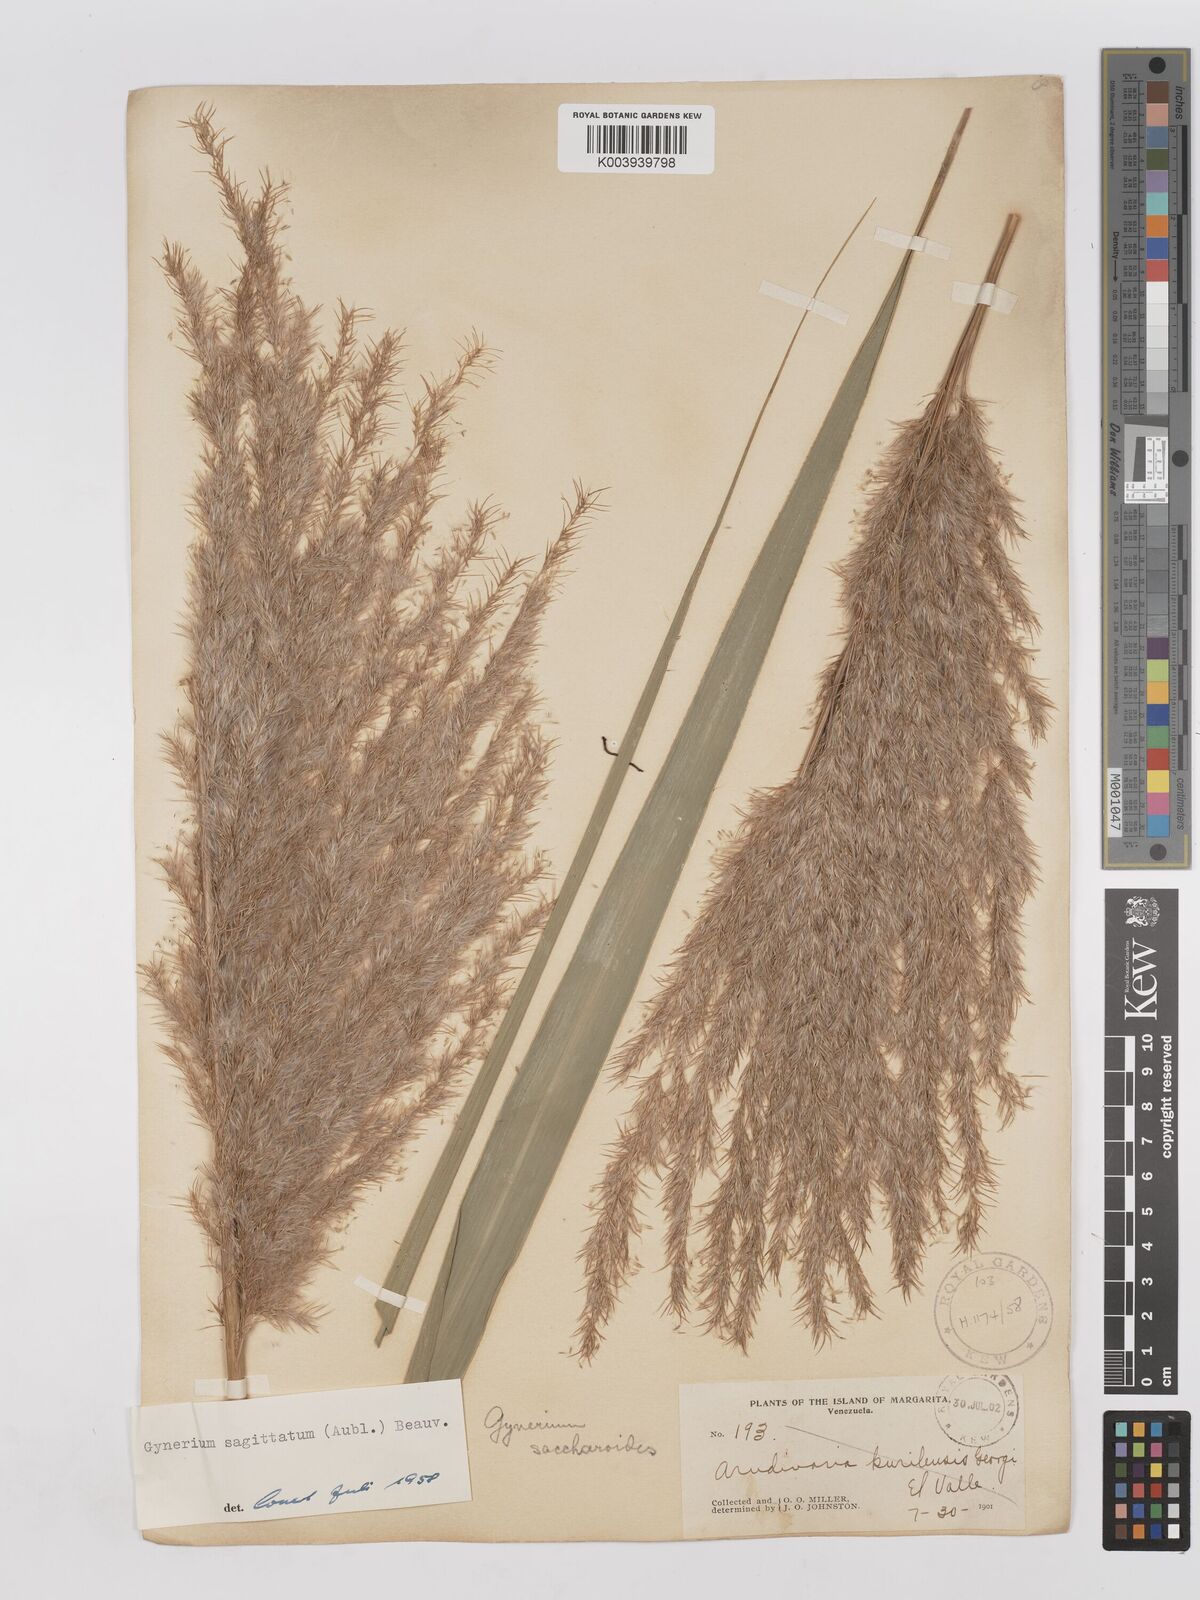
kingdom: Plantae
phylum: Tracheophyta
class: Liliopsida
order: Poales
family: Poaceae
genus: Gynerium
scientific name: Gynerium sagittatum
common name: Wild cane
